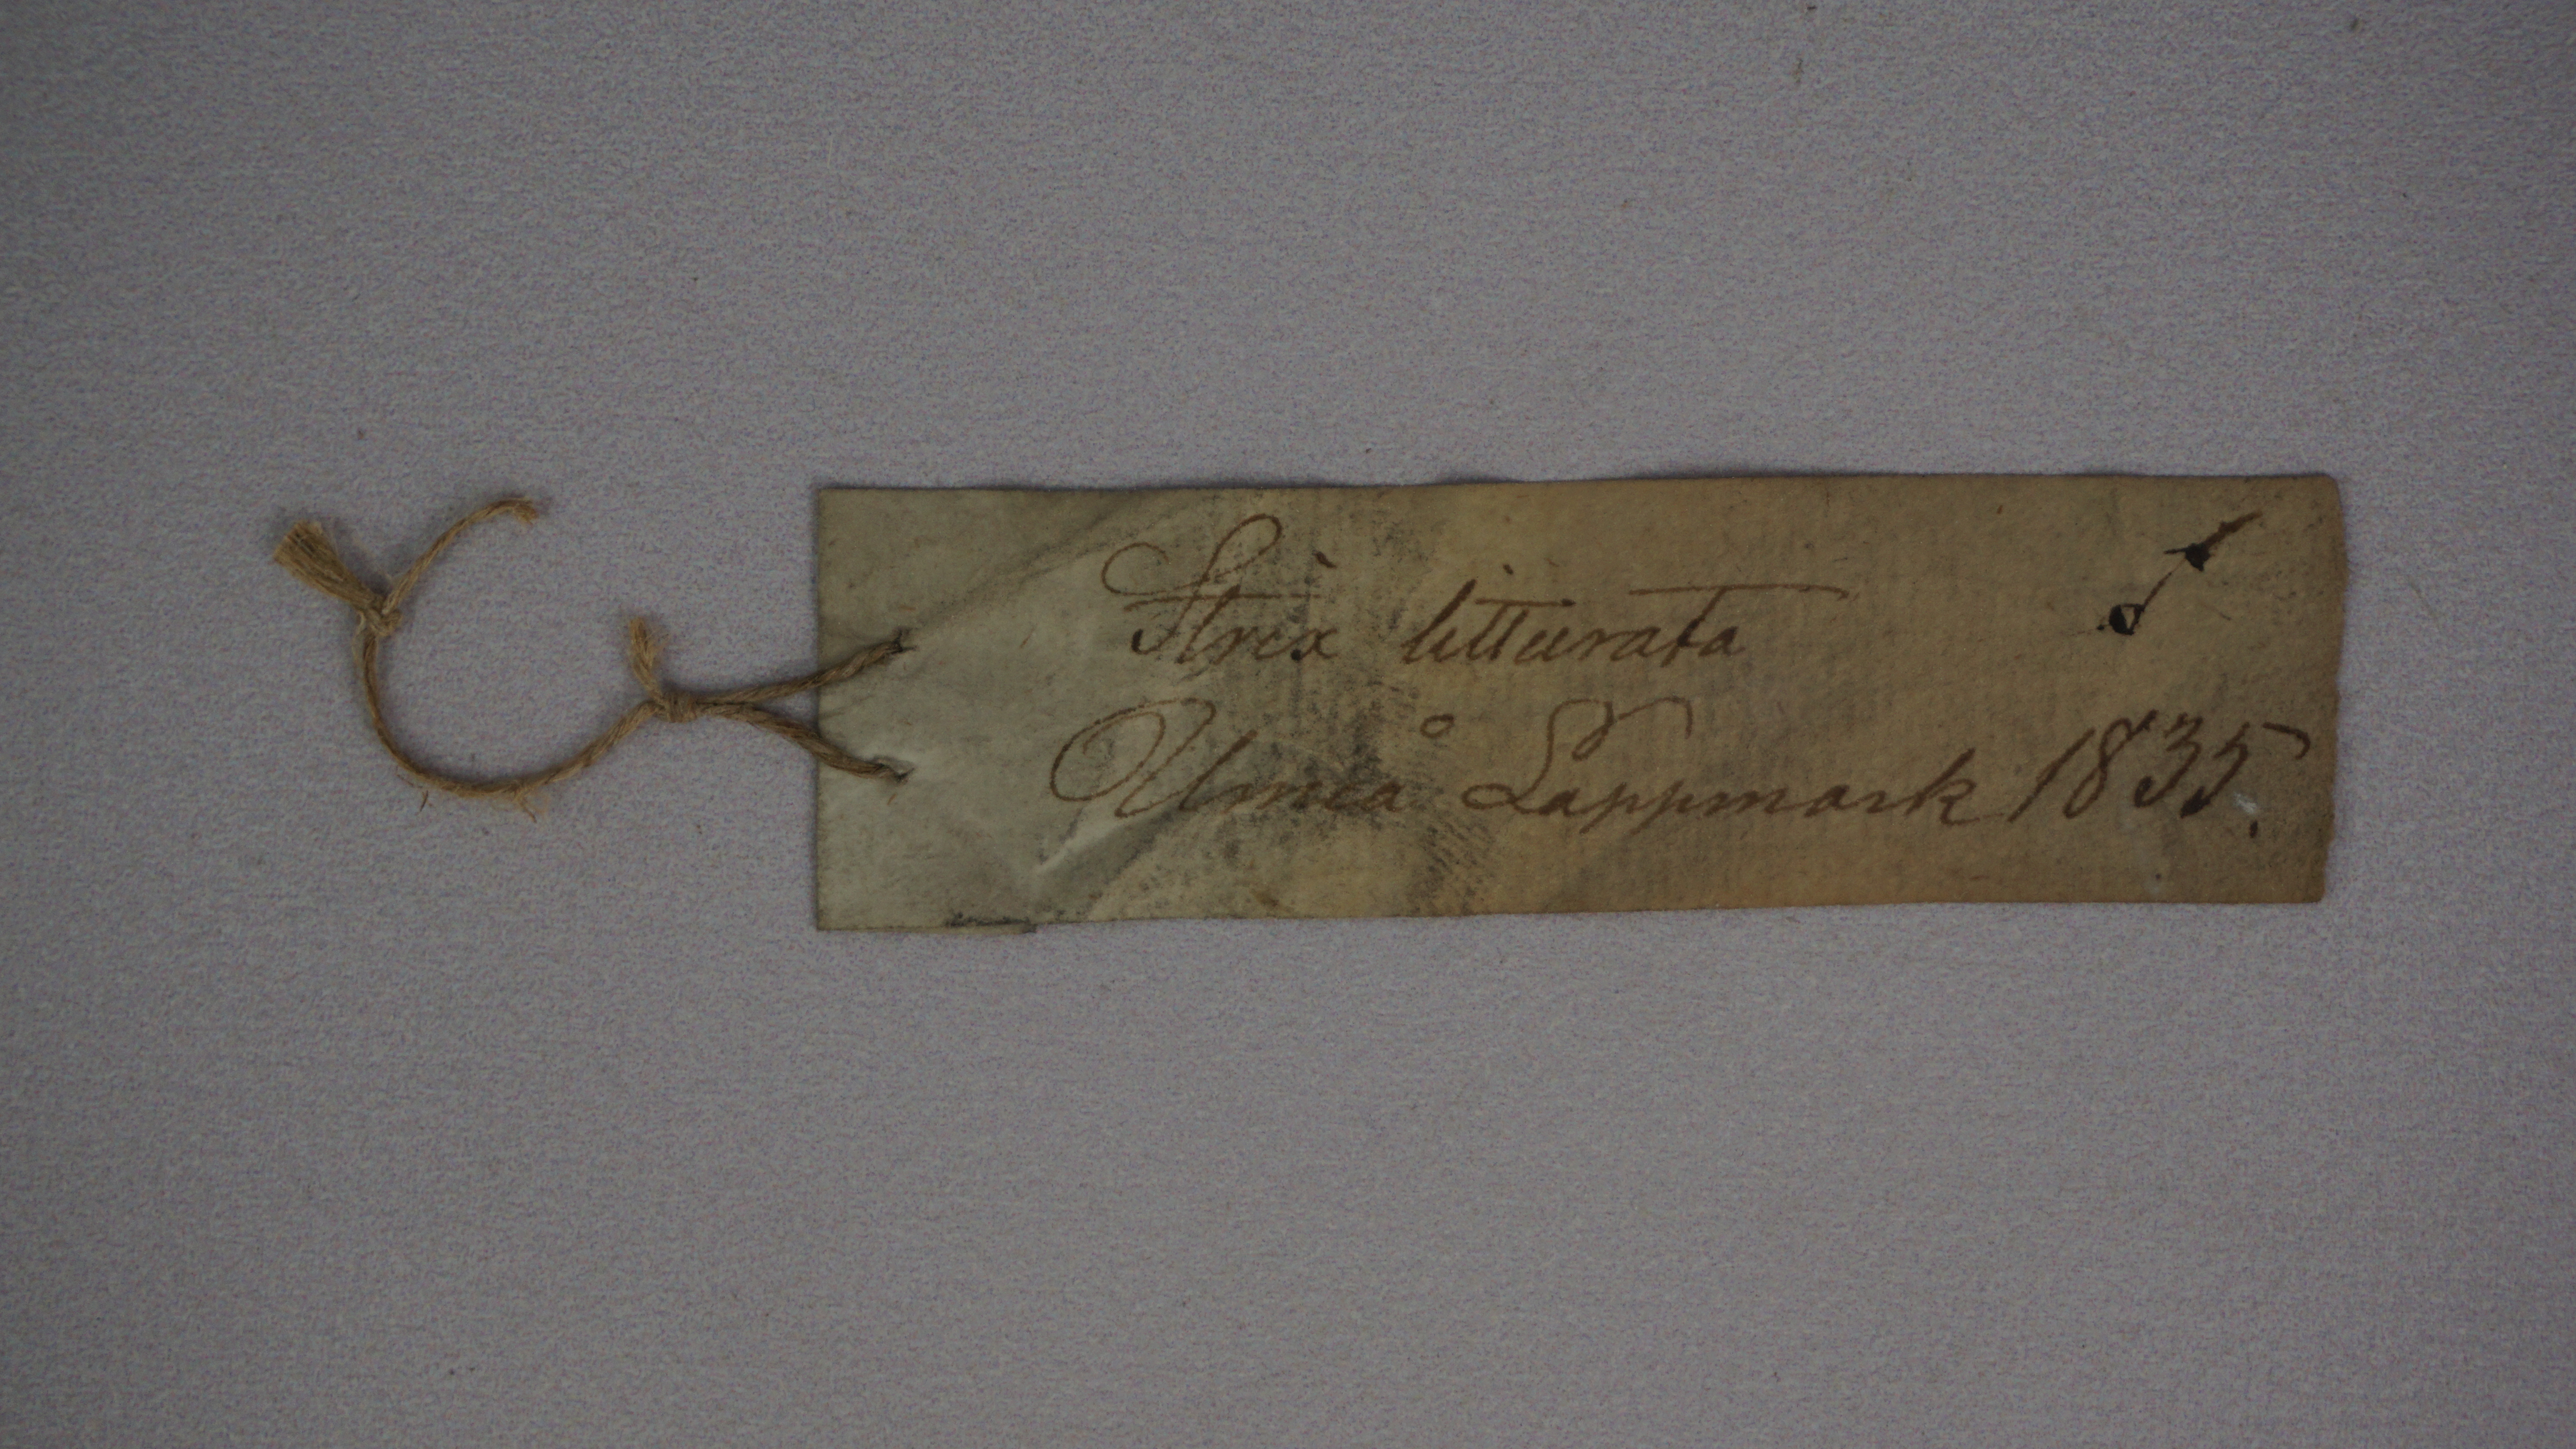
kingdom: Animalia
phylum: Chordata
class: Aves
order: Strigiformes
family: Strigidae
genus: Strix
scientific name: Strix uralensis
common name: Ural owl
